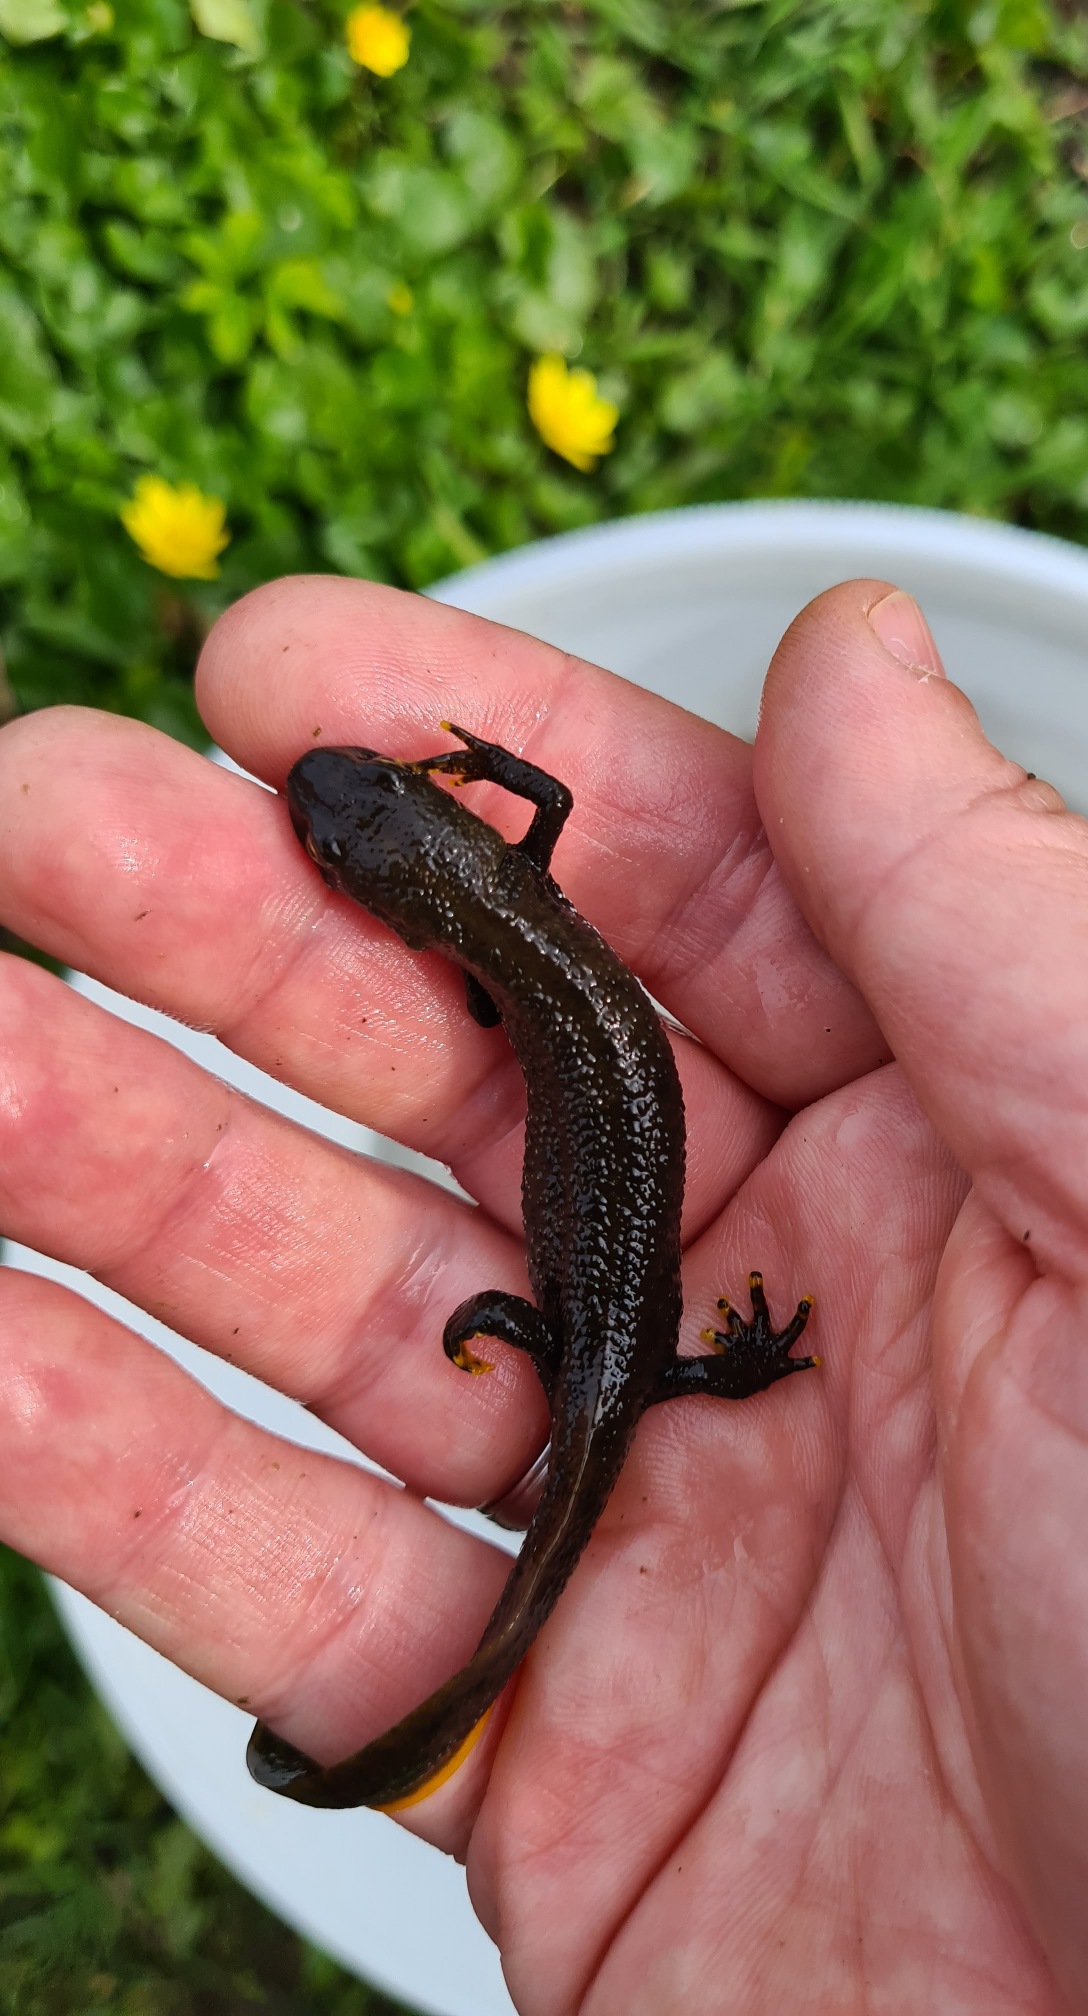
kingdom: Animalia
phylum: Chordata
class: Amphibia
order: Caudata
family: Salamandridae
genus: Triturus
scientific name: Triturus cristatus
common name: Stor vandsalamander
